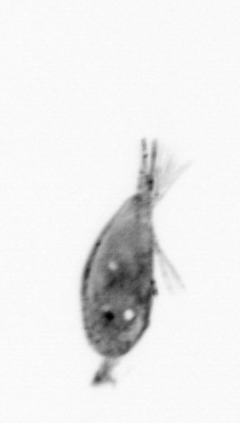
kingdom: Animalia
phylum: Arthropoda
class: Maxillopoda
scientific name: Maxillopoda
